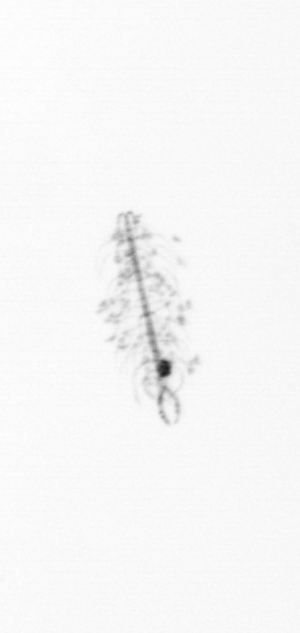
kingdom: Chromista
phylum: Ochrophyta
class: Bacillariophyceae
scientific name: Bacillariophyceae
